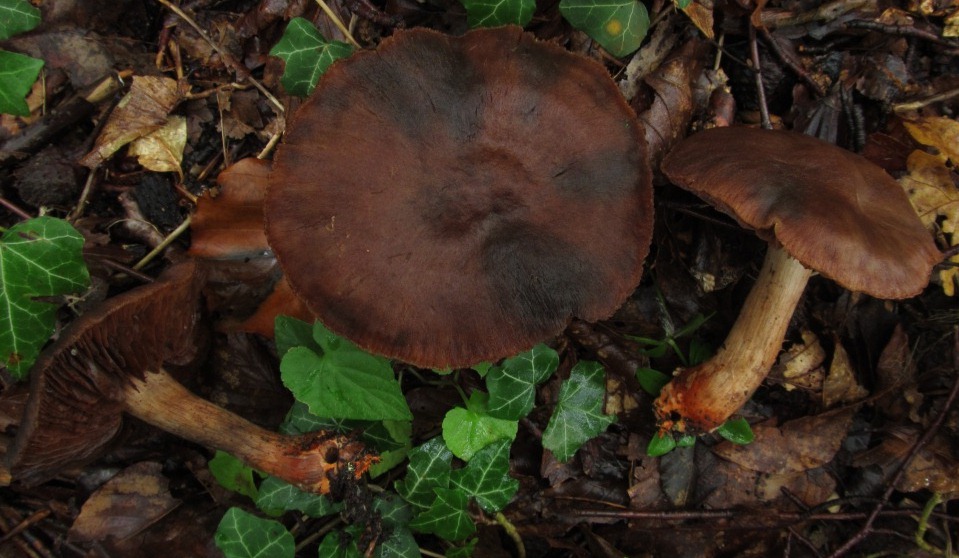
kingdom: Fungi
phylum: Basidiomycota
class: Agaricomycetes
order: Agaricales
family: Cortinariaceae
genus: Cortinarius
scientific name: Cortinarius bulliardii
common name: Bulliards slørhat
